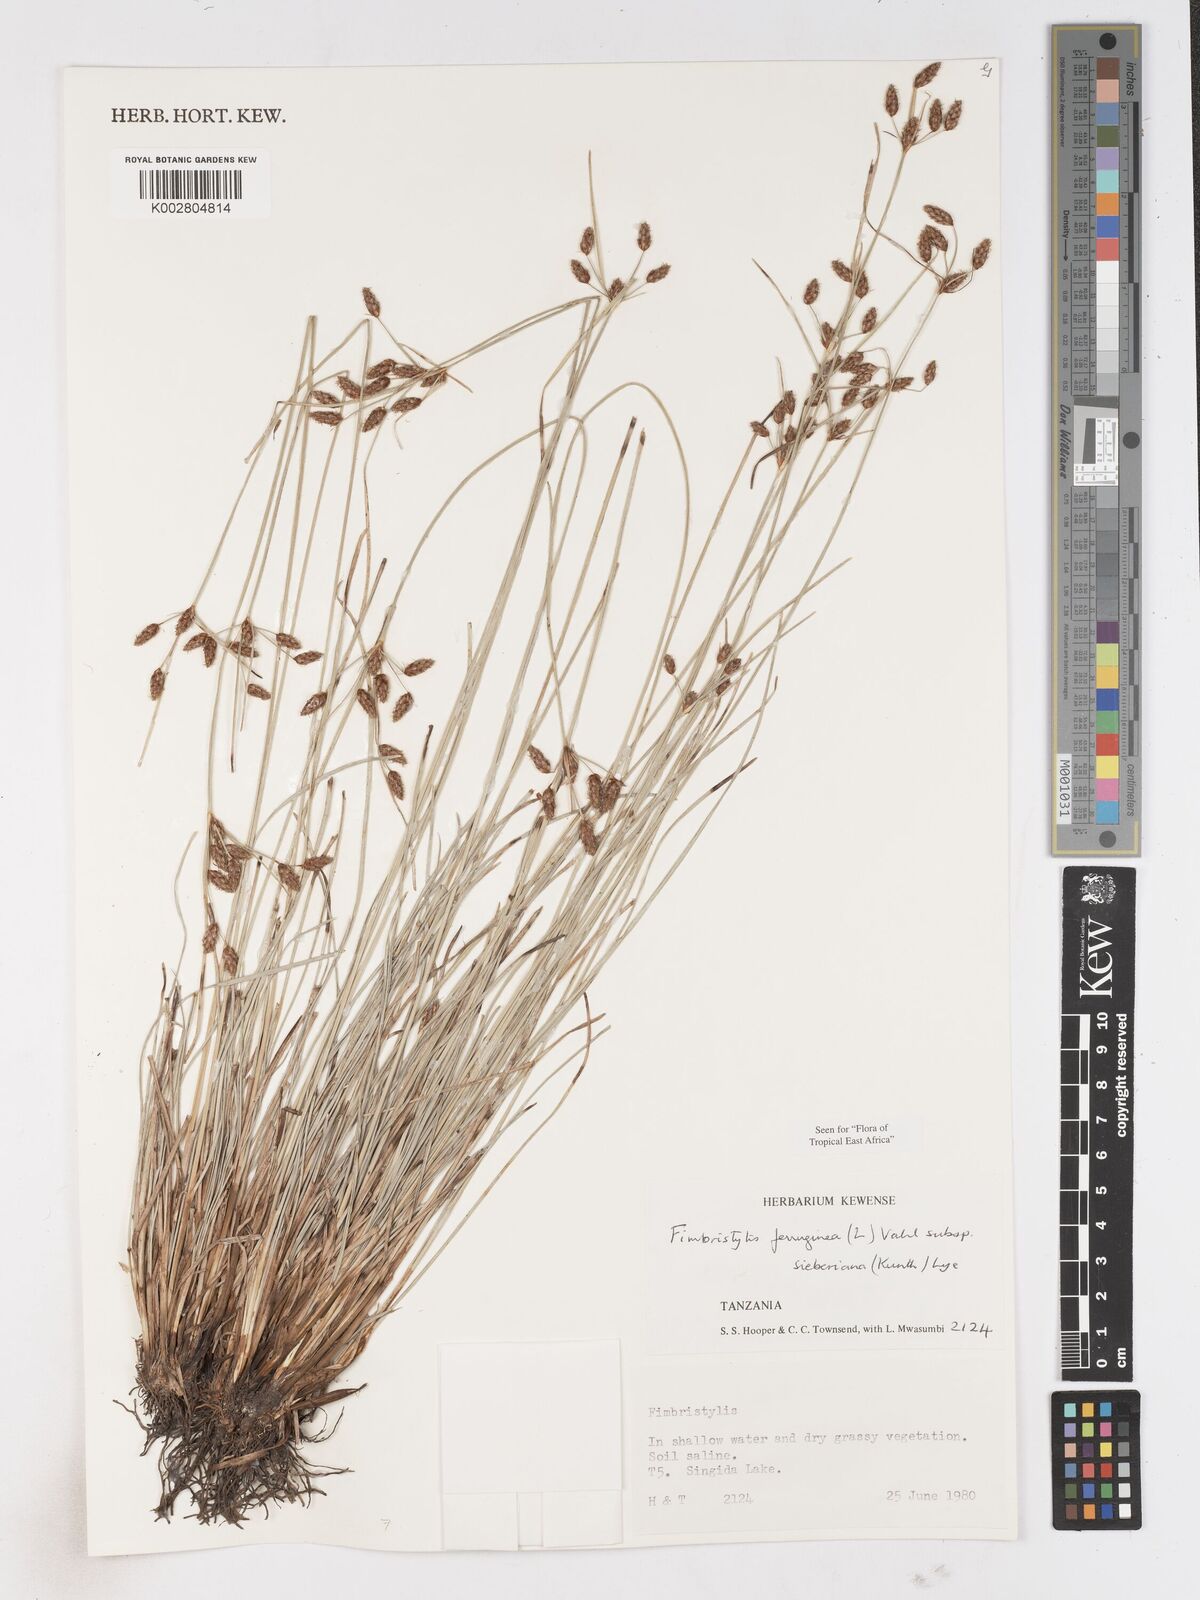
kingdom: Plantae
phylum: Tracheophyta
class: Liliopsida
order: Poales
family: Cyperaceae
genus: Fimbristylis
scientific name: Fimbristylis ferruginea
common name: West indian fimbry
